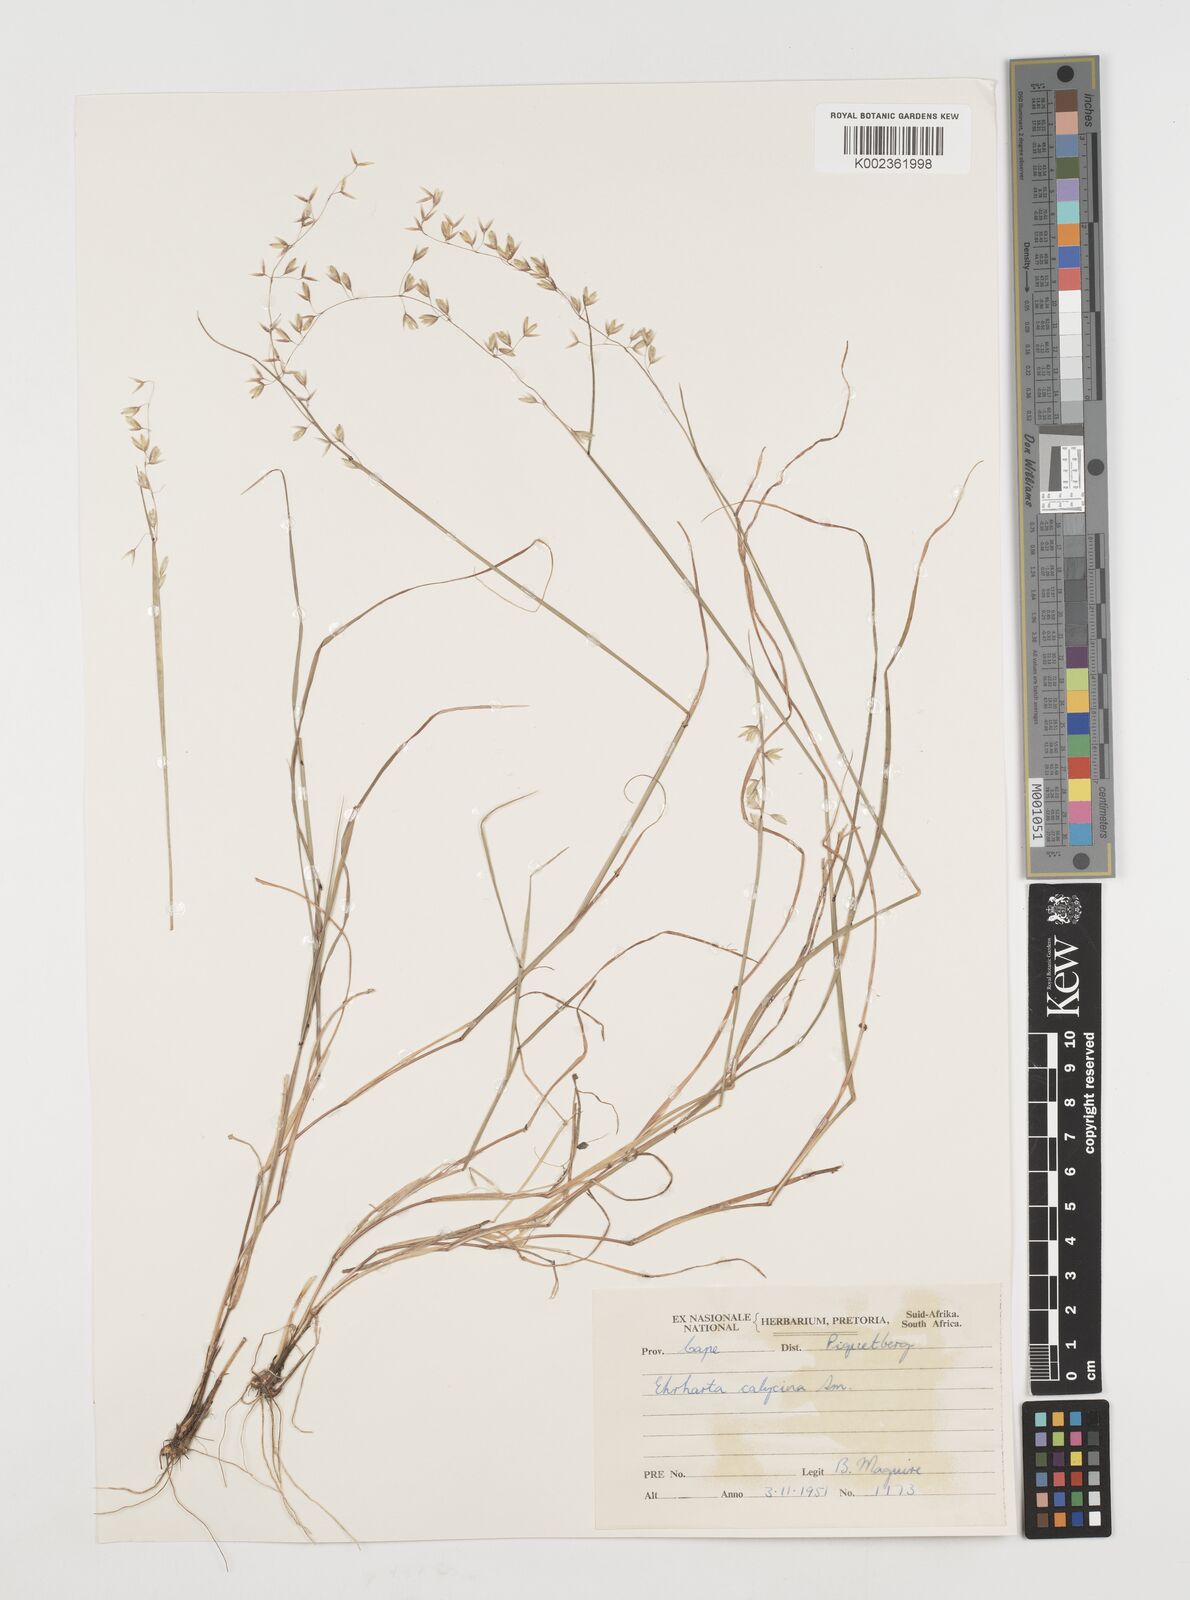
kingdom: Plantae
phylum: Tracheophyta
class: Liliopsida
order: Poales
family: Poaceae
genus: Ehrharta
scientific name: Ehrharta calycina
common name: Perennial veldtgrass
